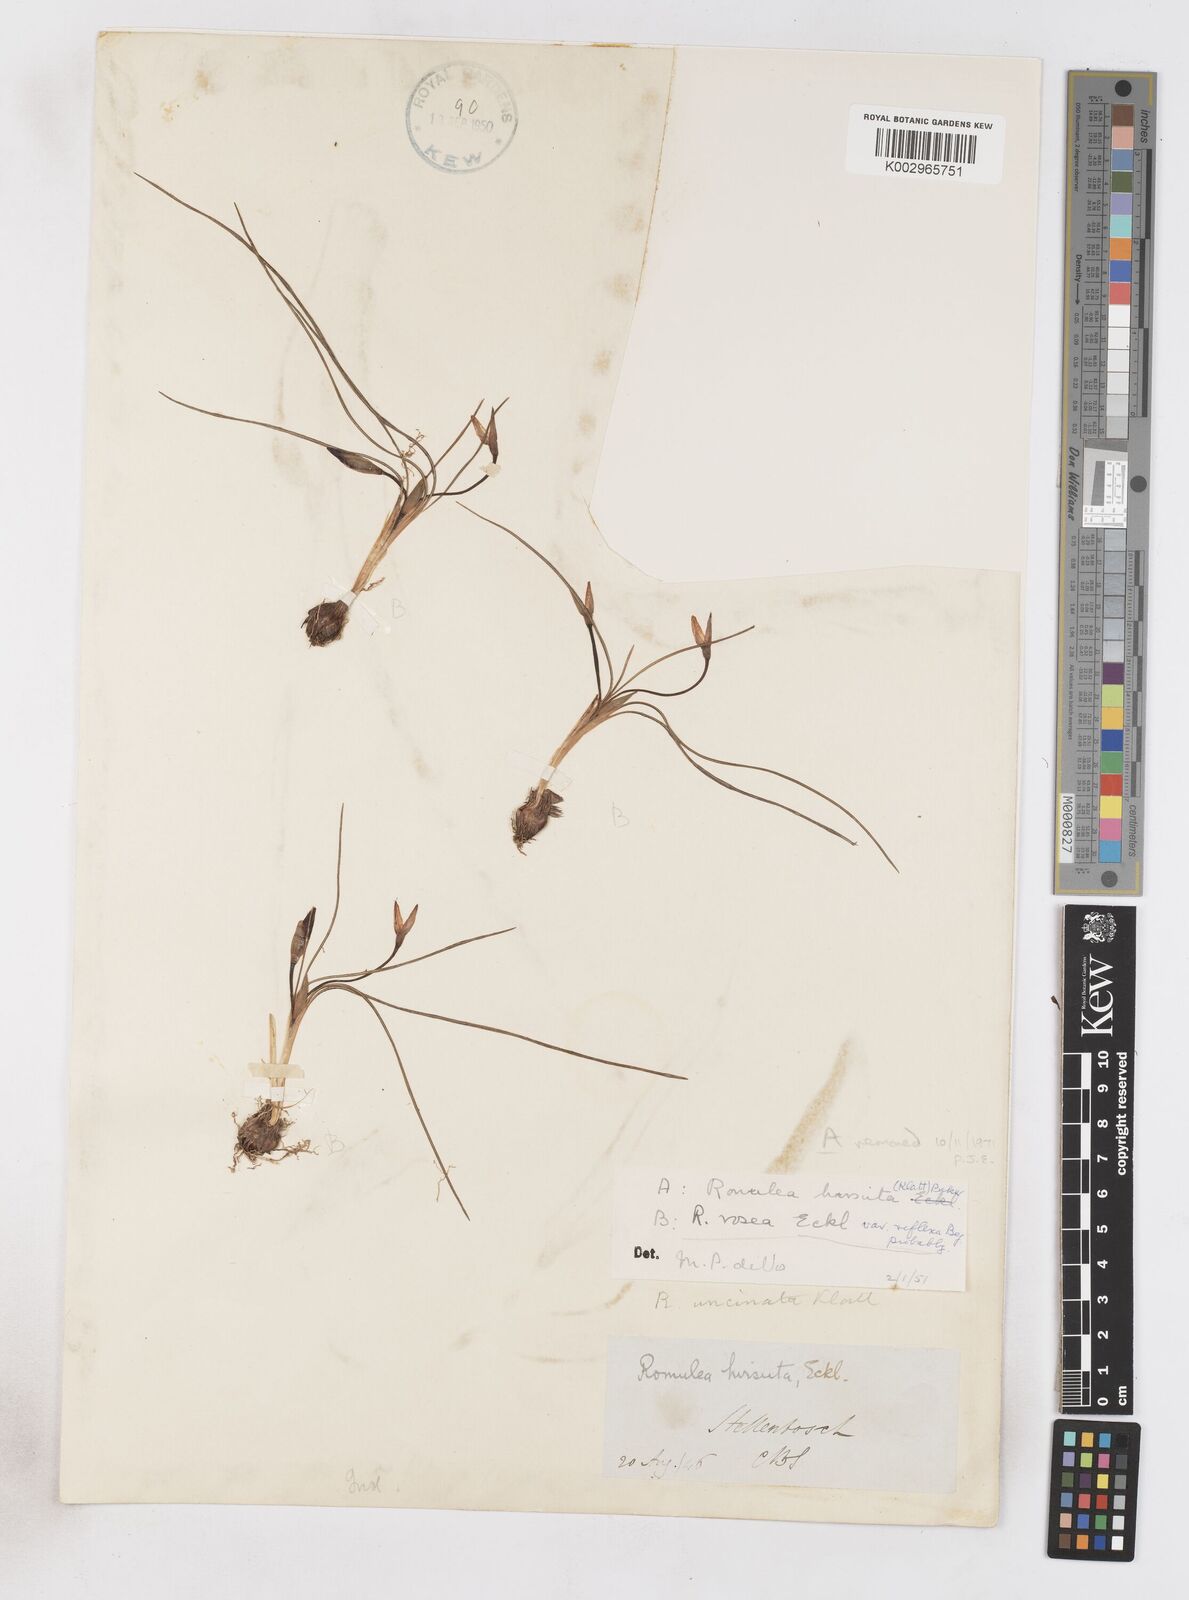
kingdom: Plantae
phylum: Tracheophyta
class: Liliopsida
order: Asparagales
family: Iridaceae
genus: Romulea
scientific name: Romulea rosea
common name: Oniongrass
